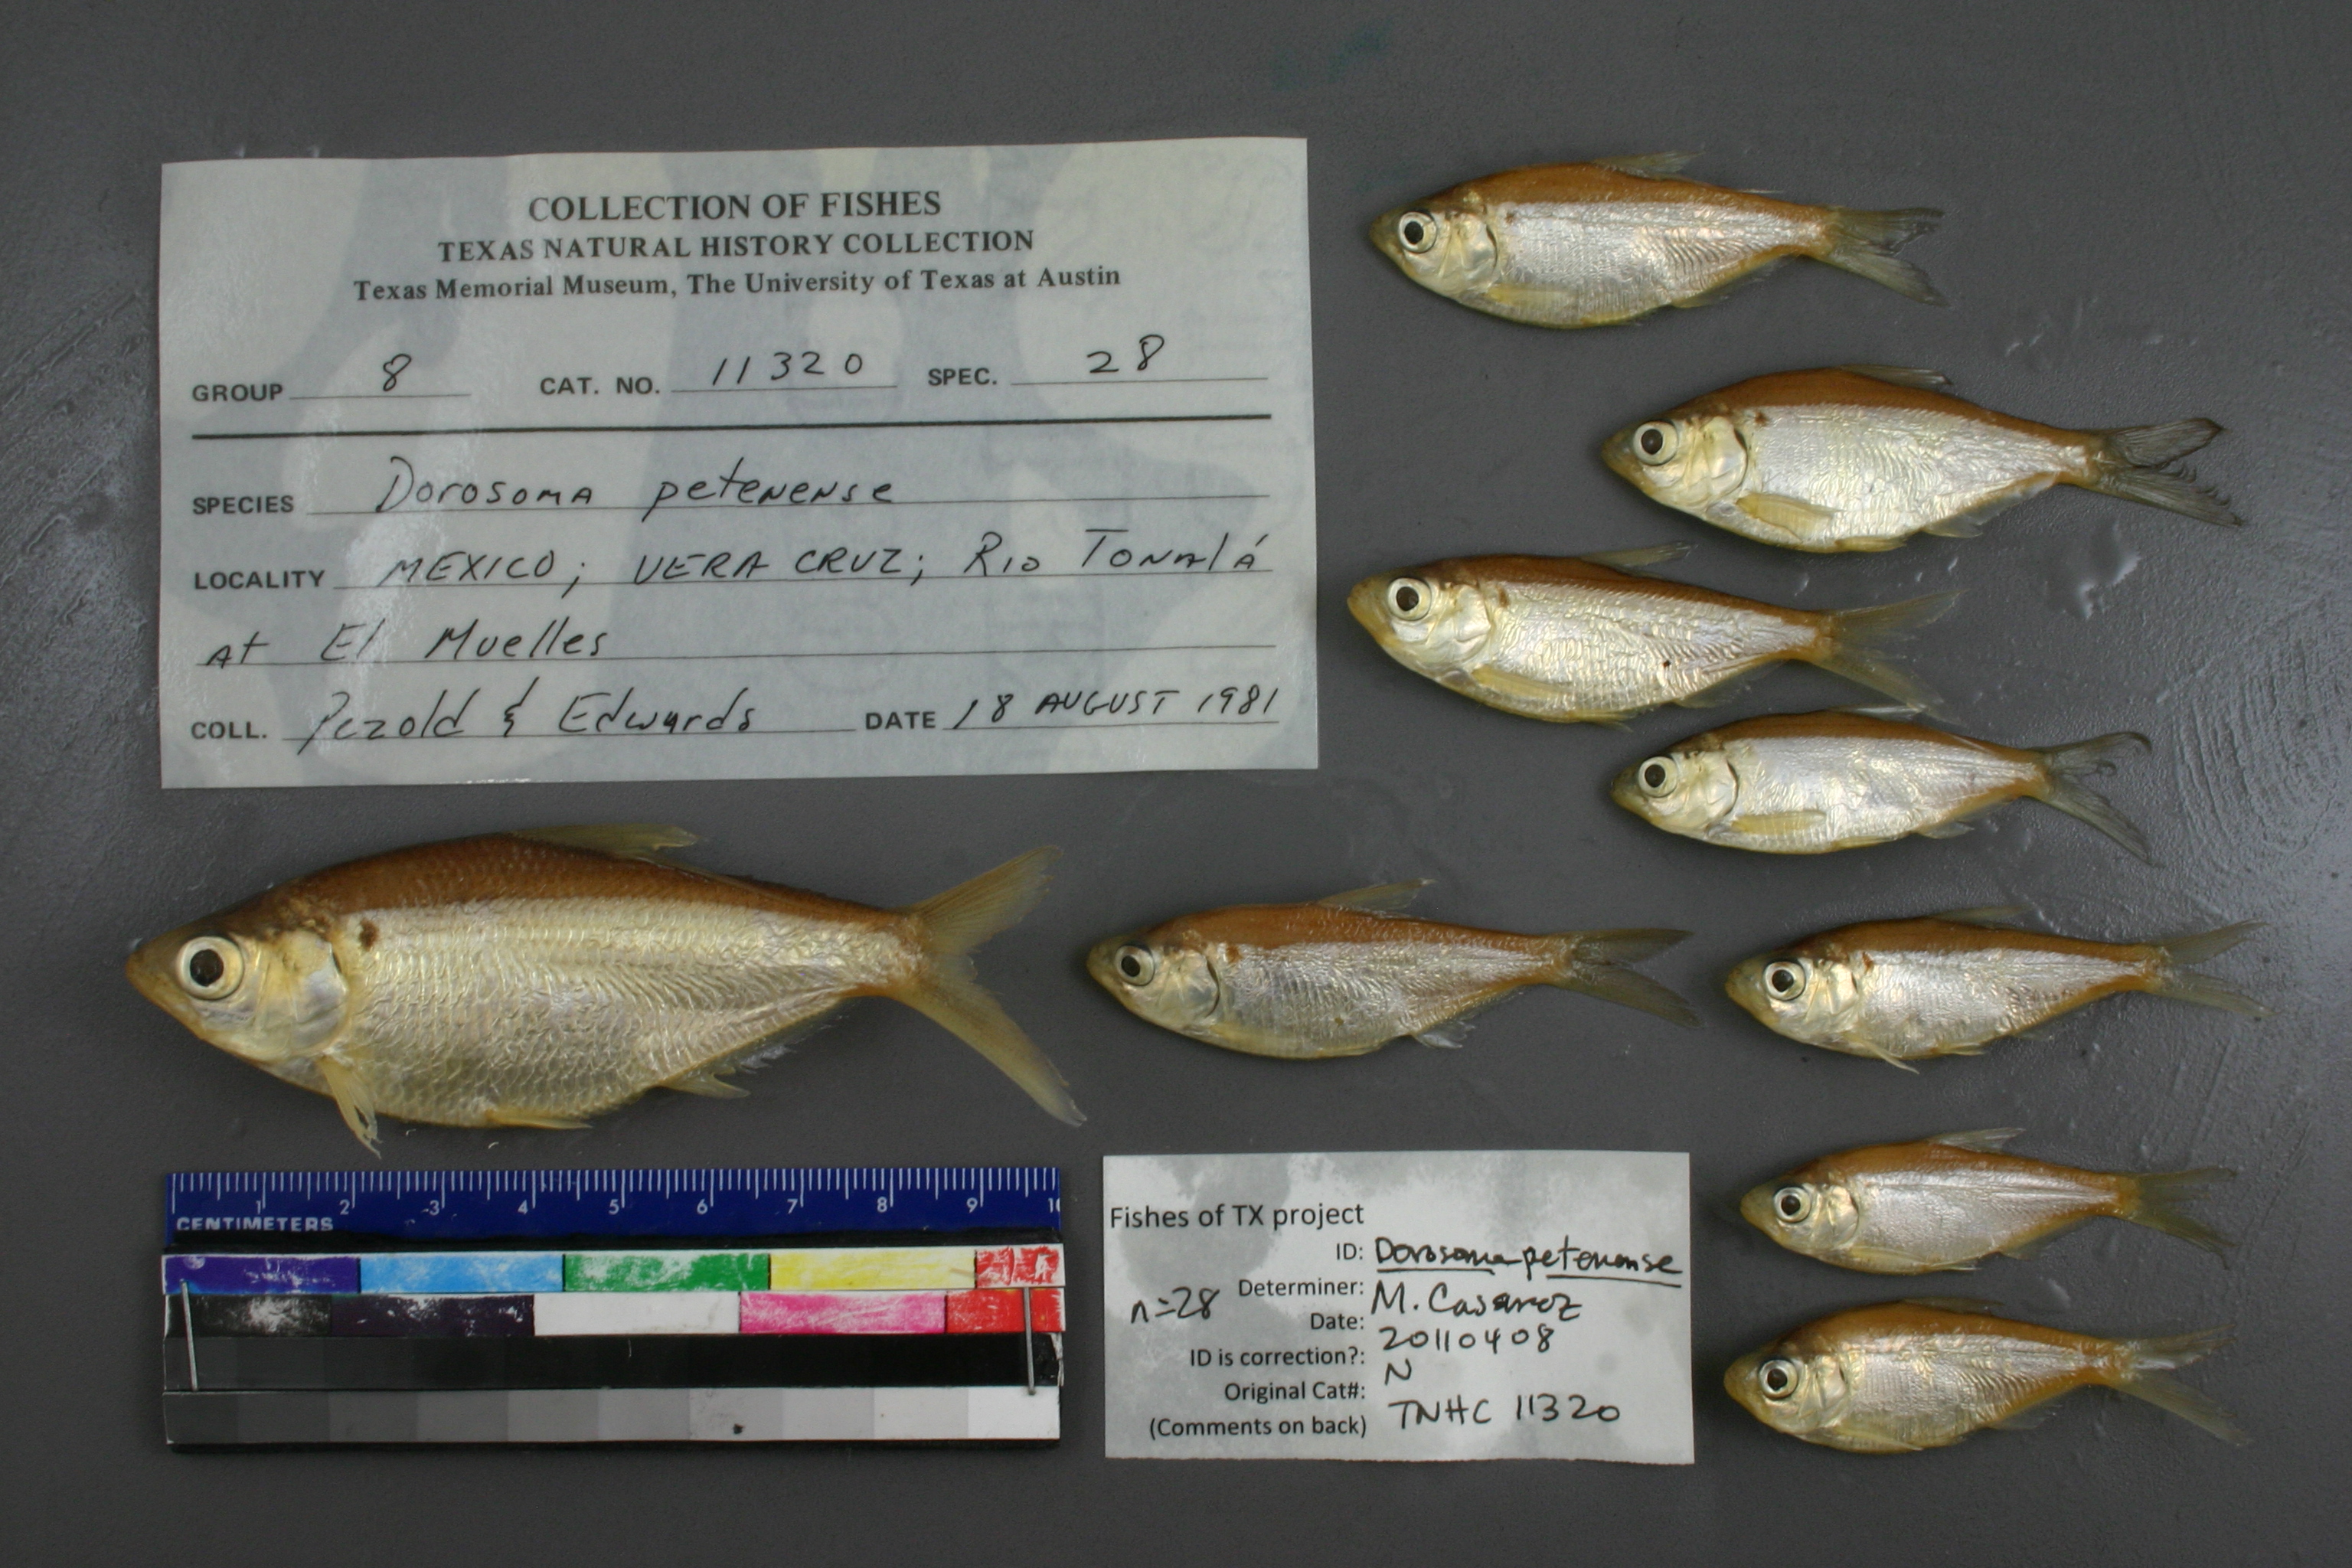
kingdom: Animalia
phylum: Chordata
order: Clupeiformes
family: Clupeidae
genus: Dorosoma
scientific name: Dorosoma petenense
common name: Threadfin shad
